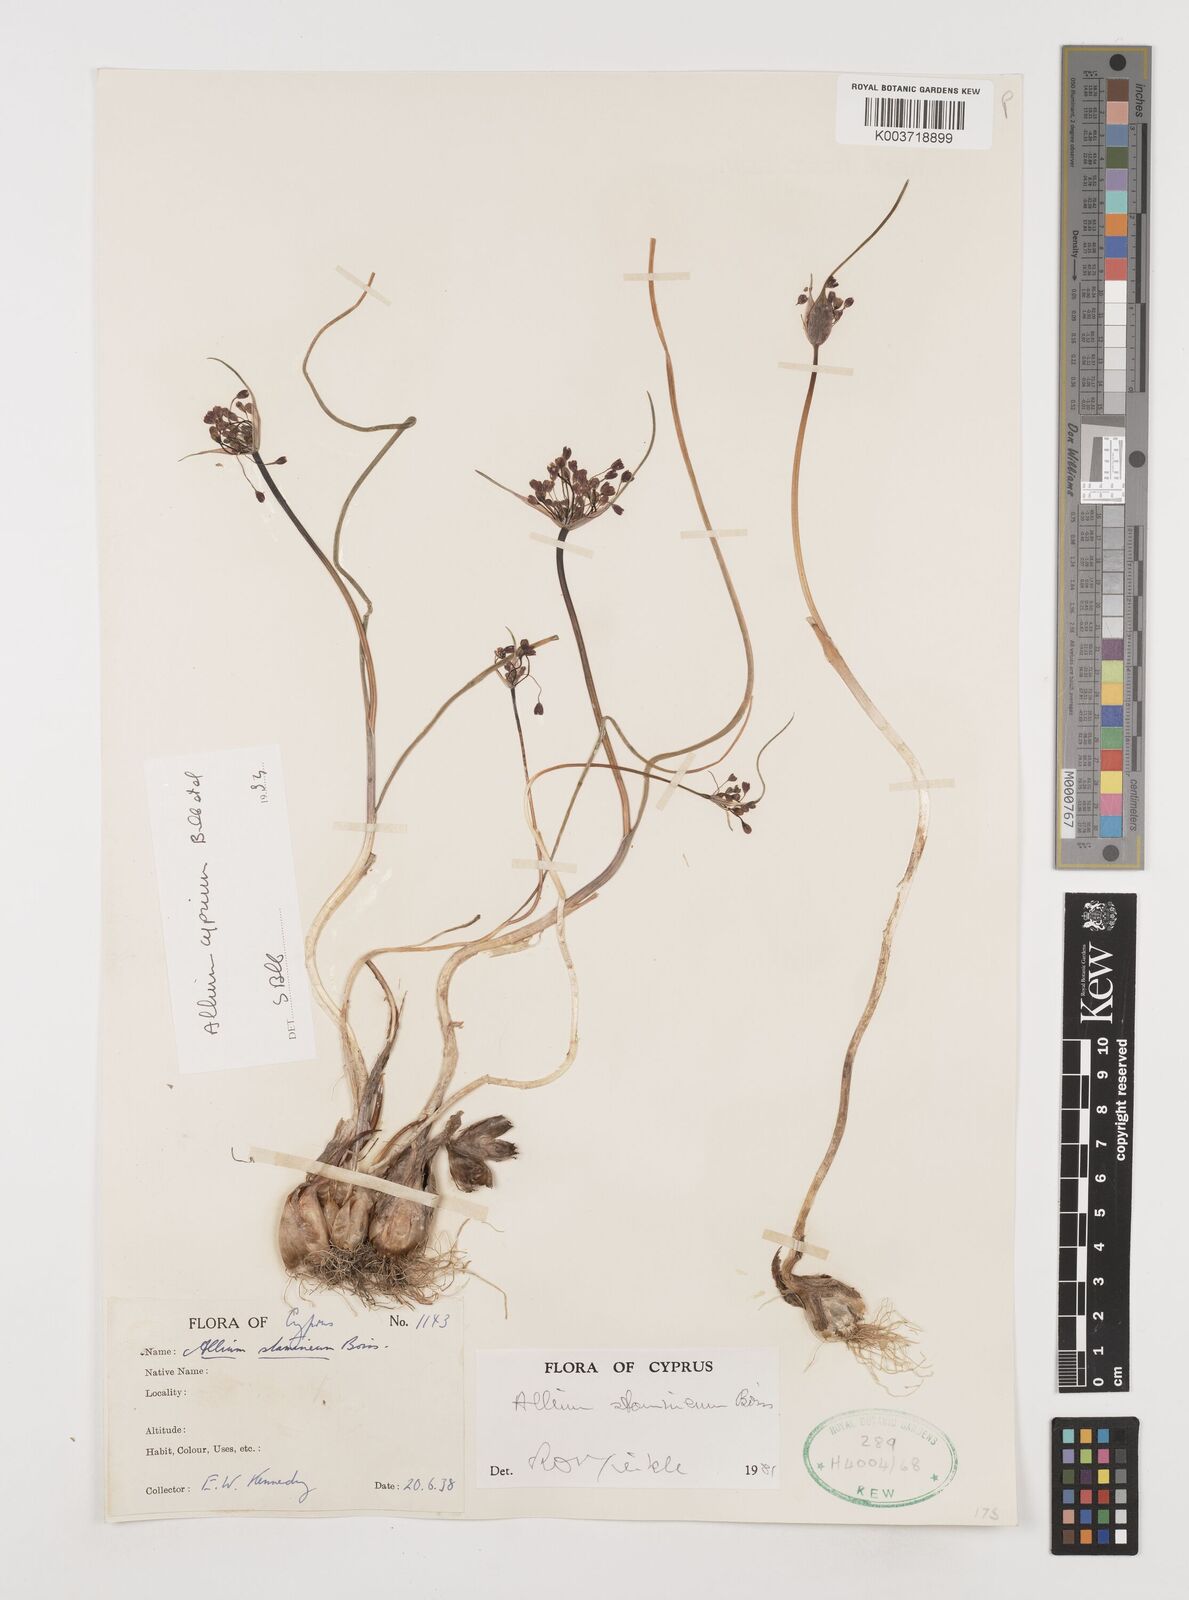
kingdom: Plantae
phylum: Tracheophyta
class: Liliopsida
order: Asparagales
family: Amaryllidaceae
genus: Allium
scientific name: Allium stamineum
